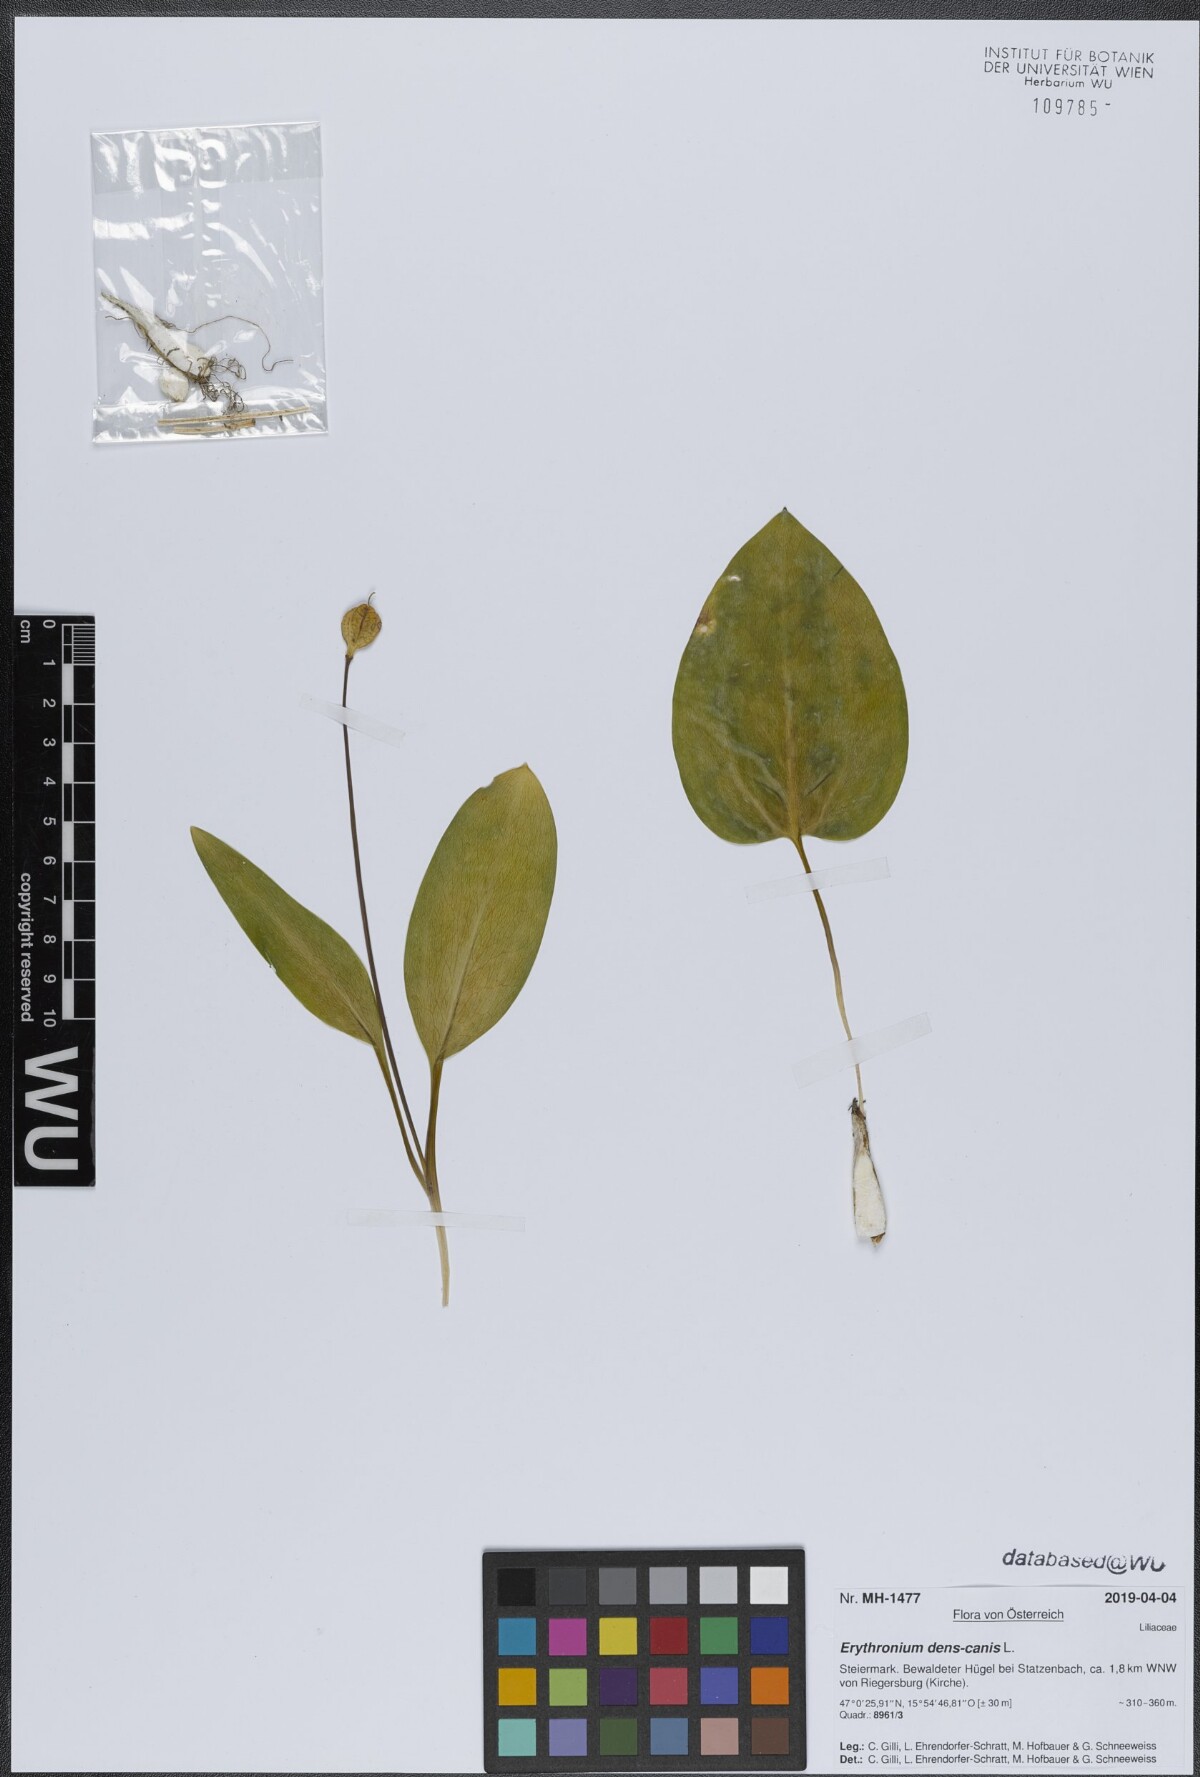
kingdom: Plantae
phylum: Tracheophyta
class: Liliopsida
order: Liliales
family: Liliaceae
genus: Erythronium
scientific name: Erythronium dens-canis
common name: Dog's-tooth-violet
